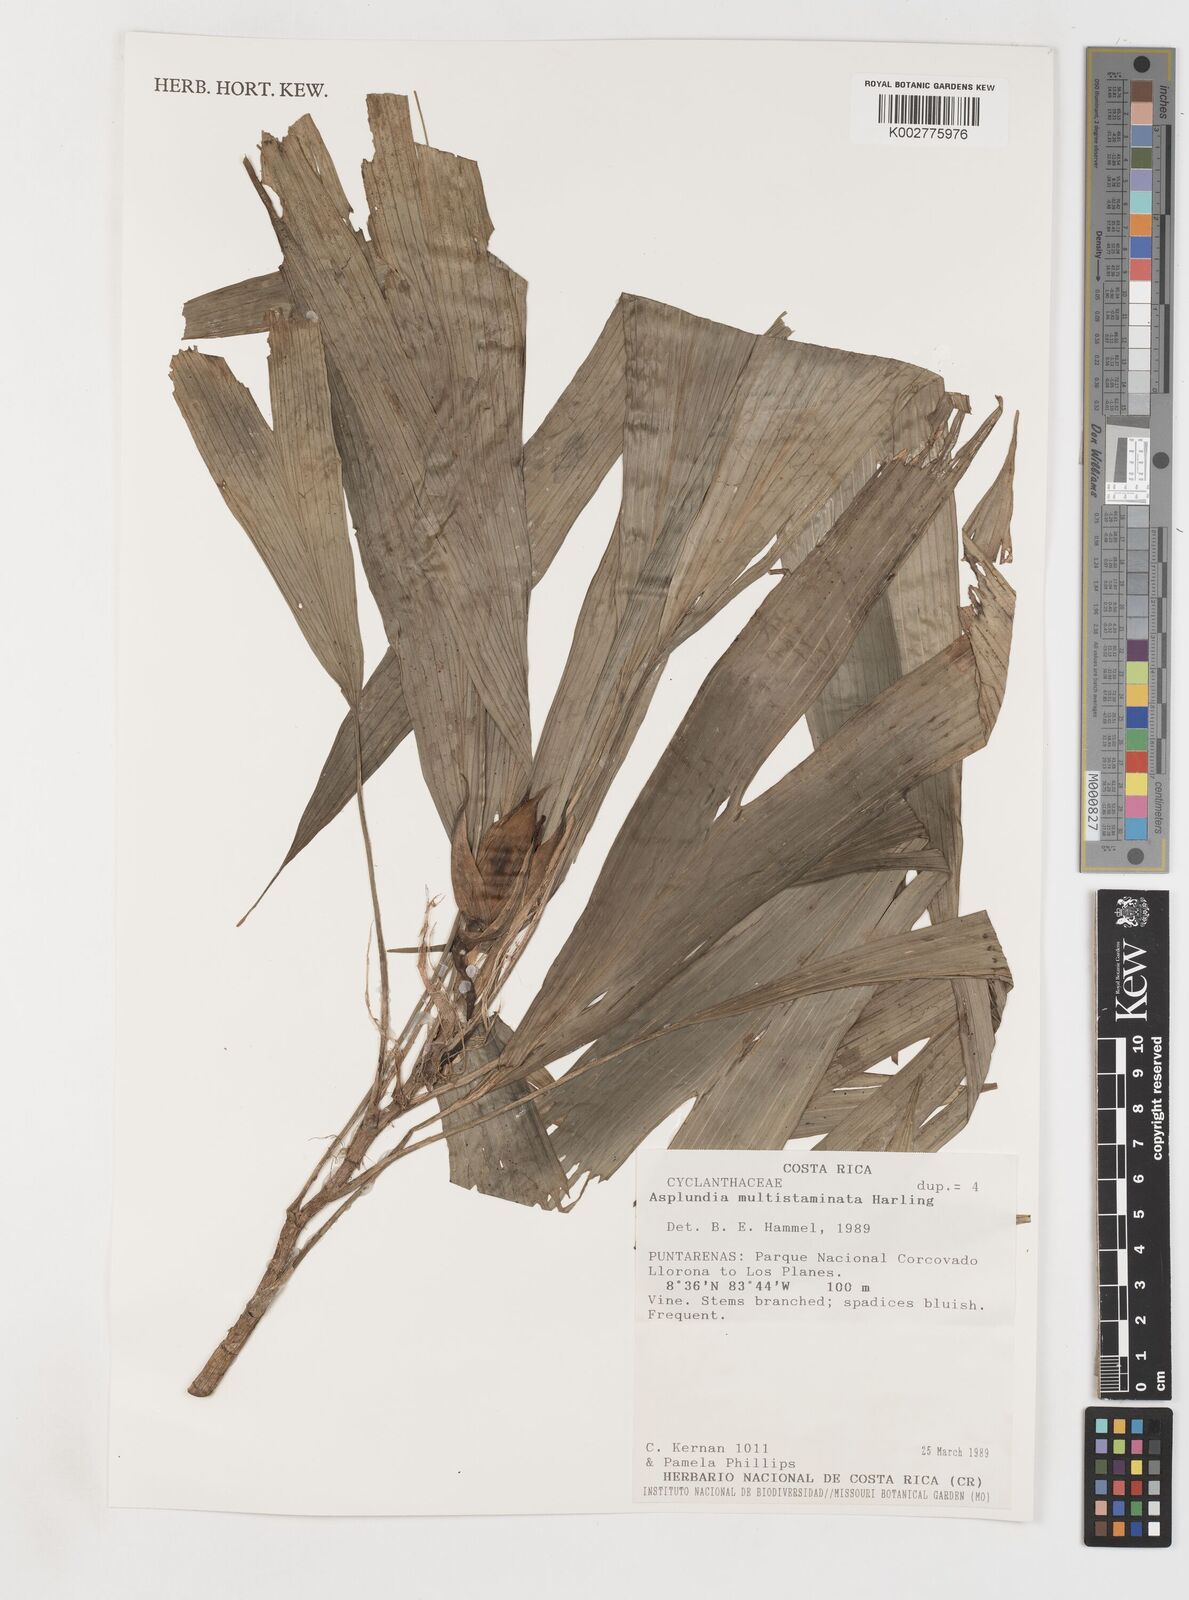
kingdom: Plantae
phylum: Tracheophyta
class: Liliopsida
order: Pandanales
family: Cyclanthaceae
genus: Asplundia
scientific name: Asplundia multistaminata
